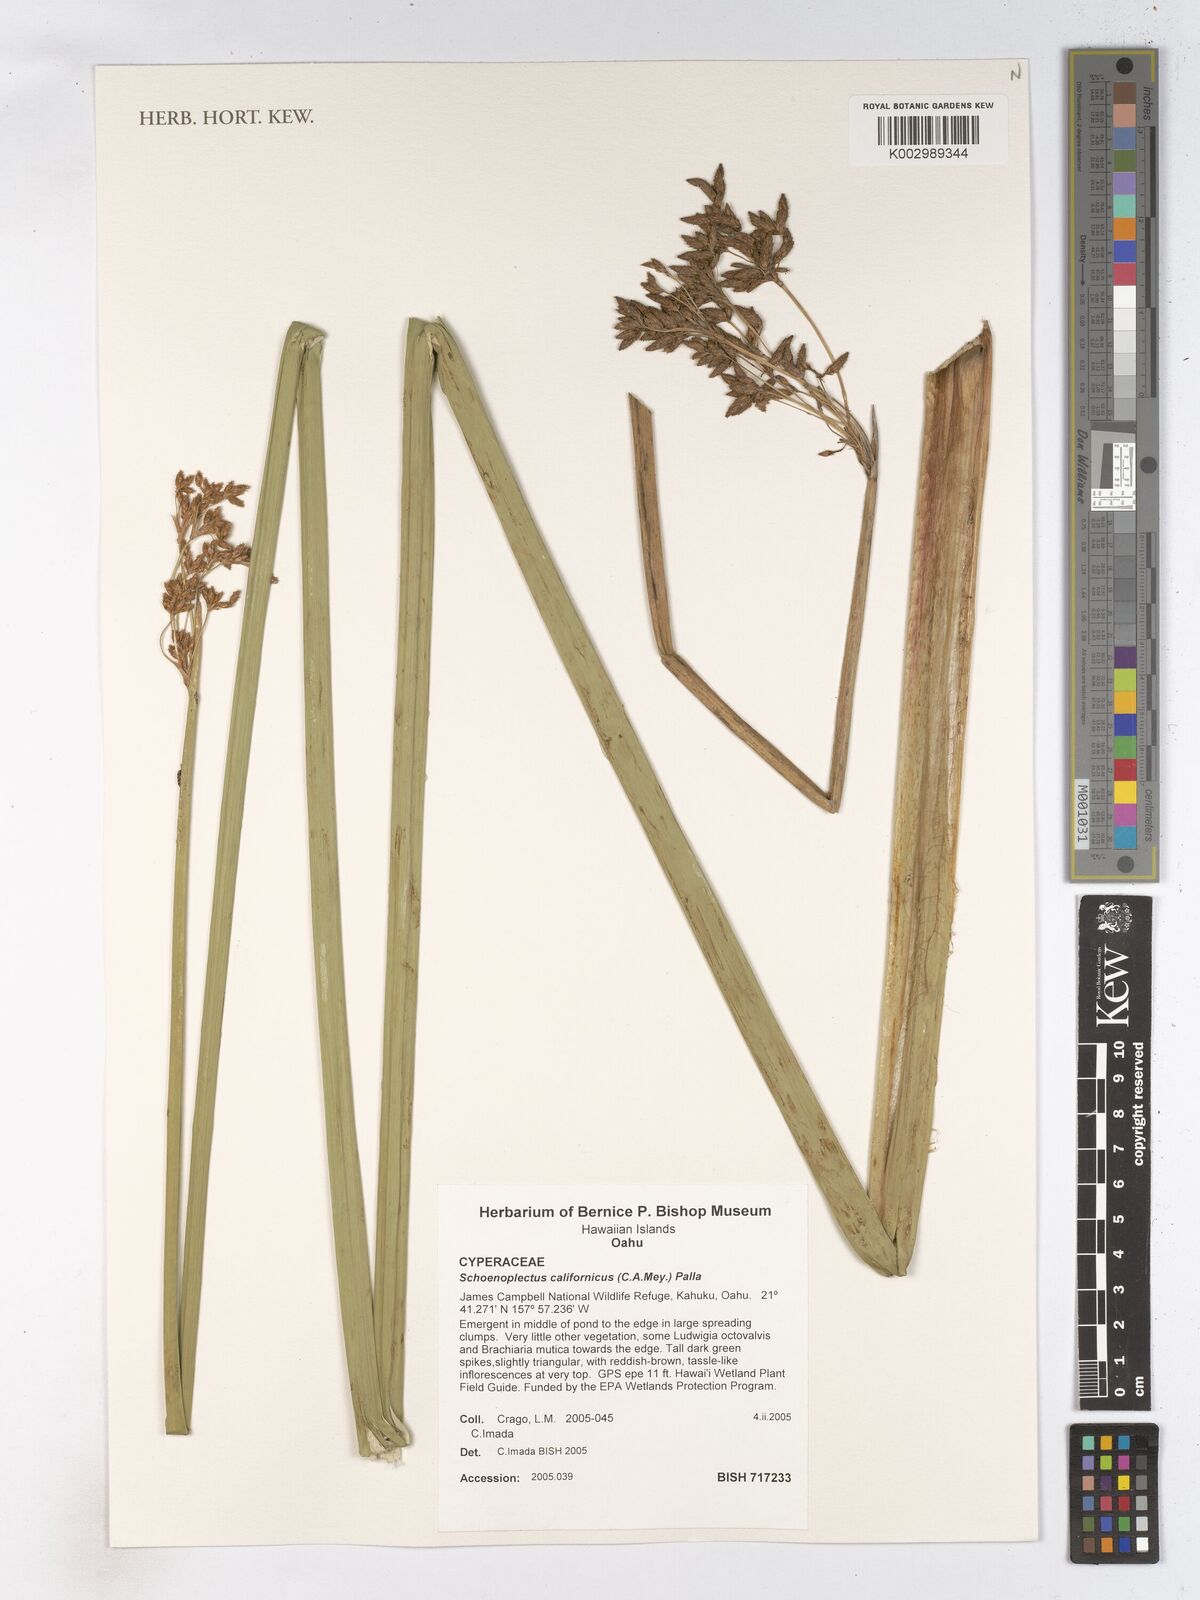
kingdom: Plantae
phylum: Tracheophyta
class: Liliopsida
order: Poales
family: Cyperaceae
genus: Schoenoplectus
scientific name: Schoenoplectus californicus
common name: California bulrush
